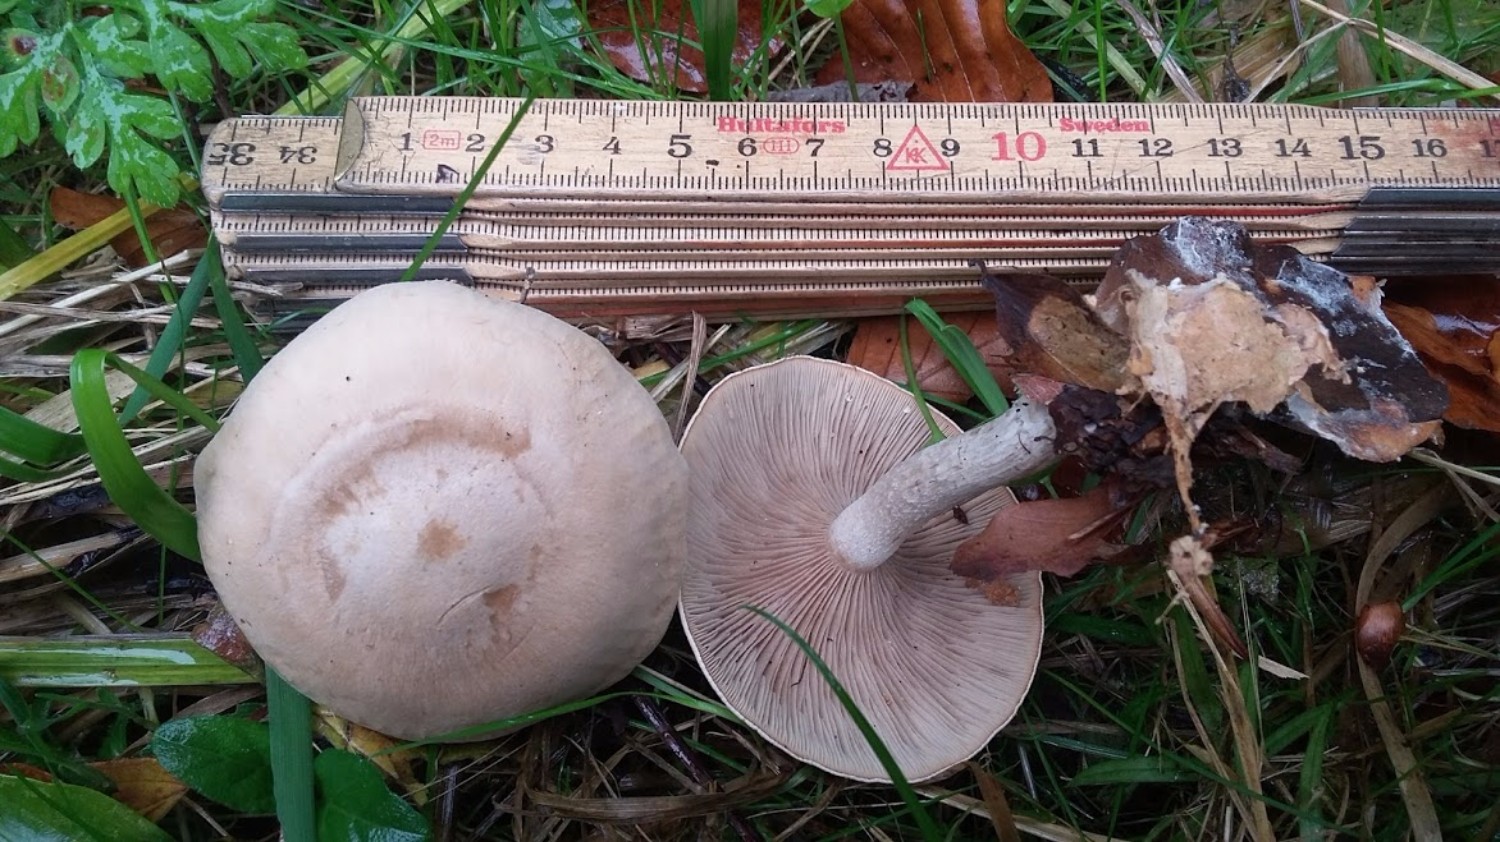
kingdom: Fungi
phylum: Basidiomycota
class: Agaricomycetes
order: Agaricales
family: Tricholomataceae
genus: Lepista
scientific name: Lepista irina
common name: violduftende hekseringshat
